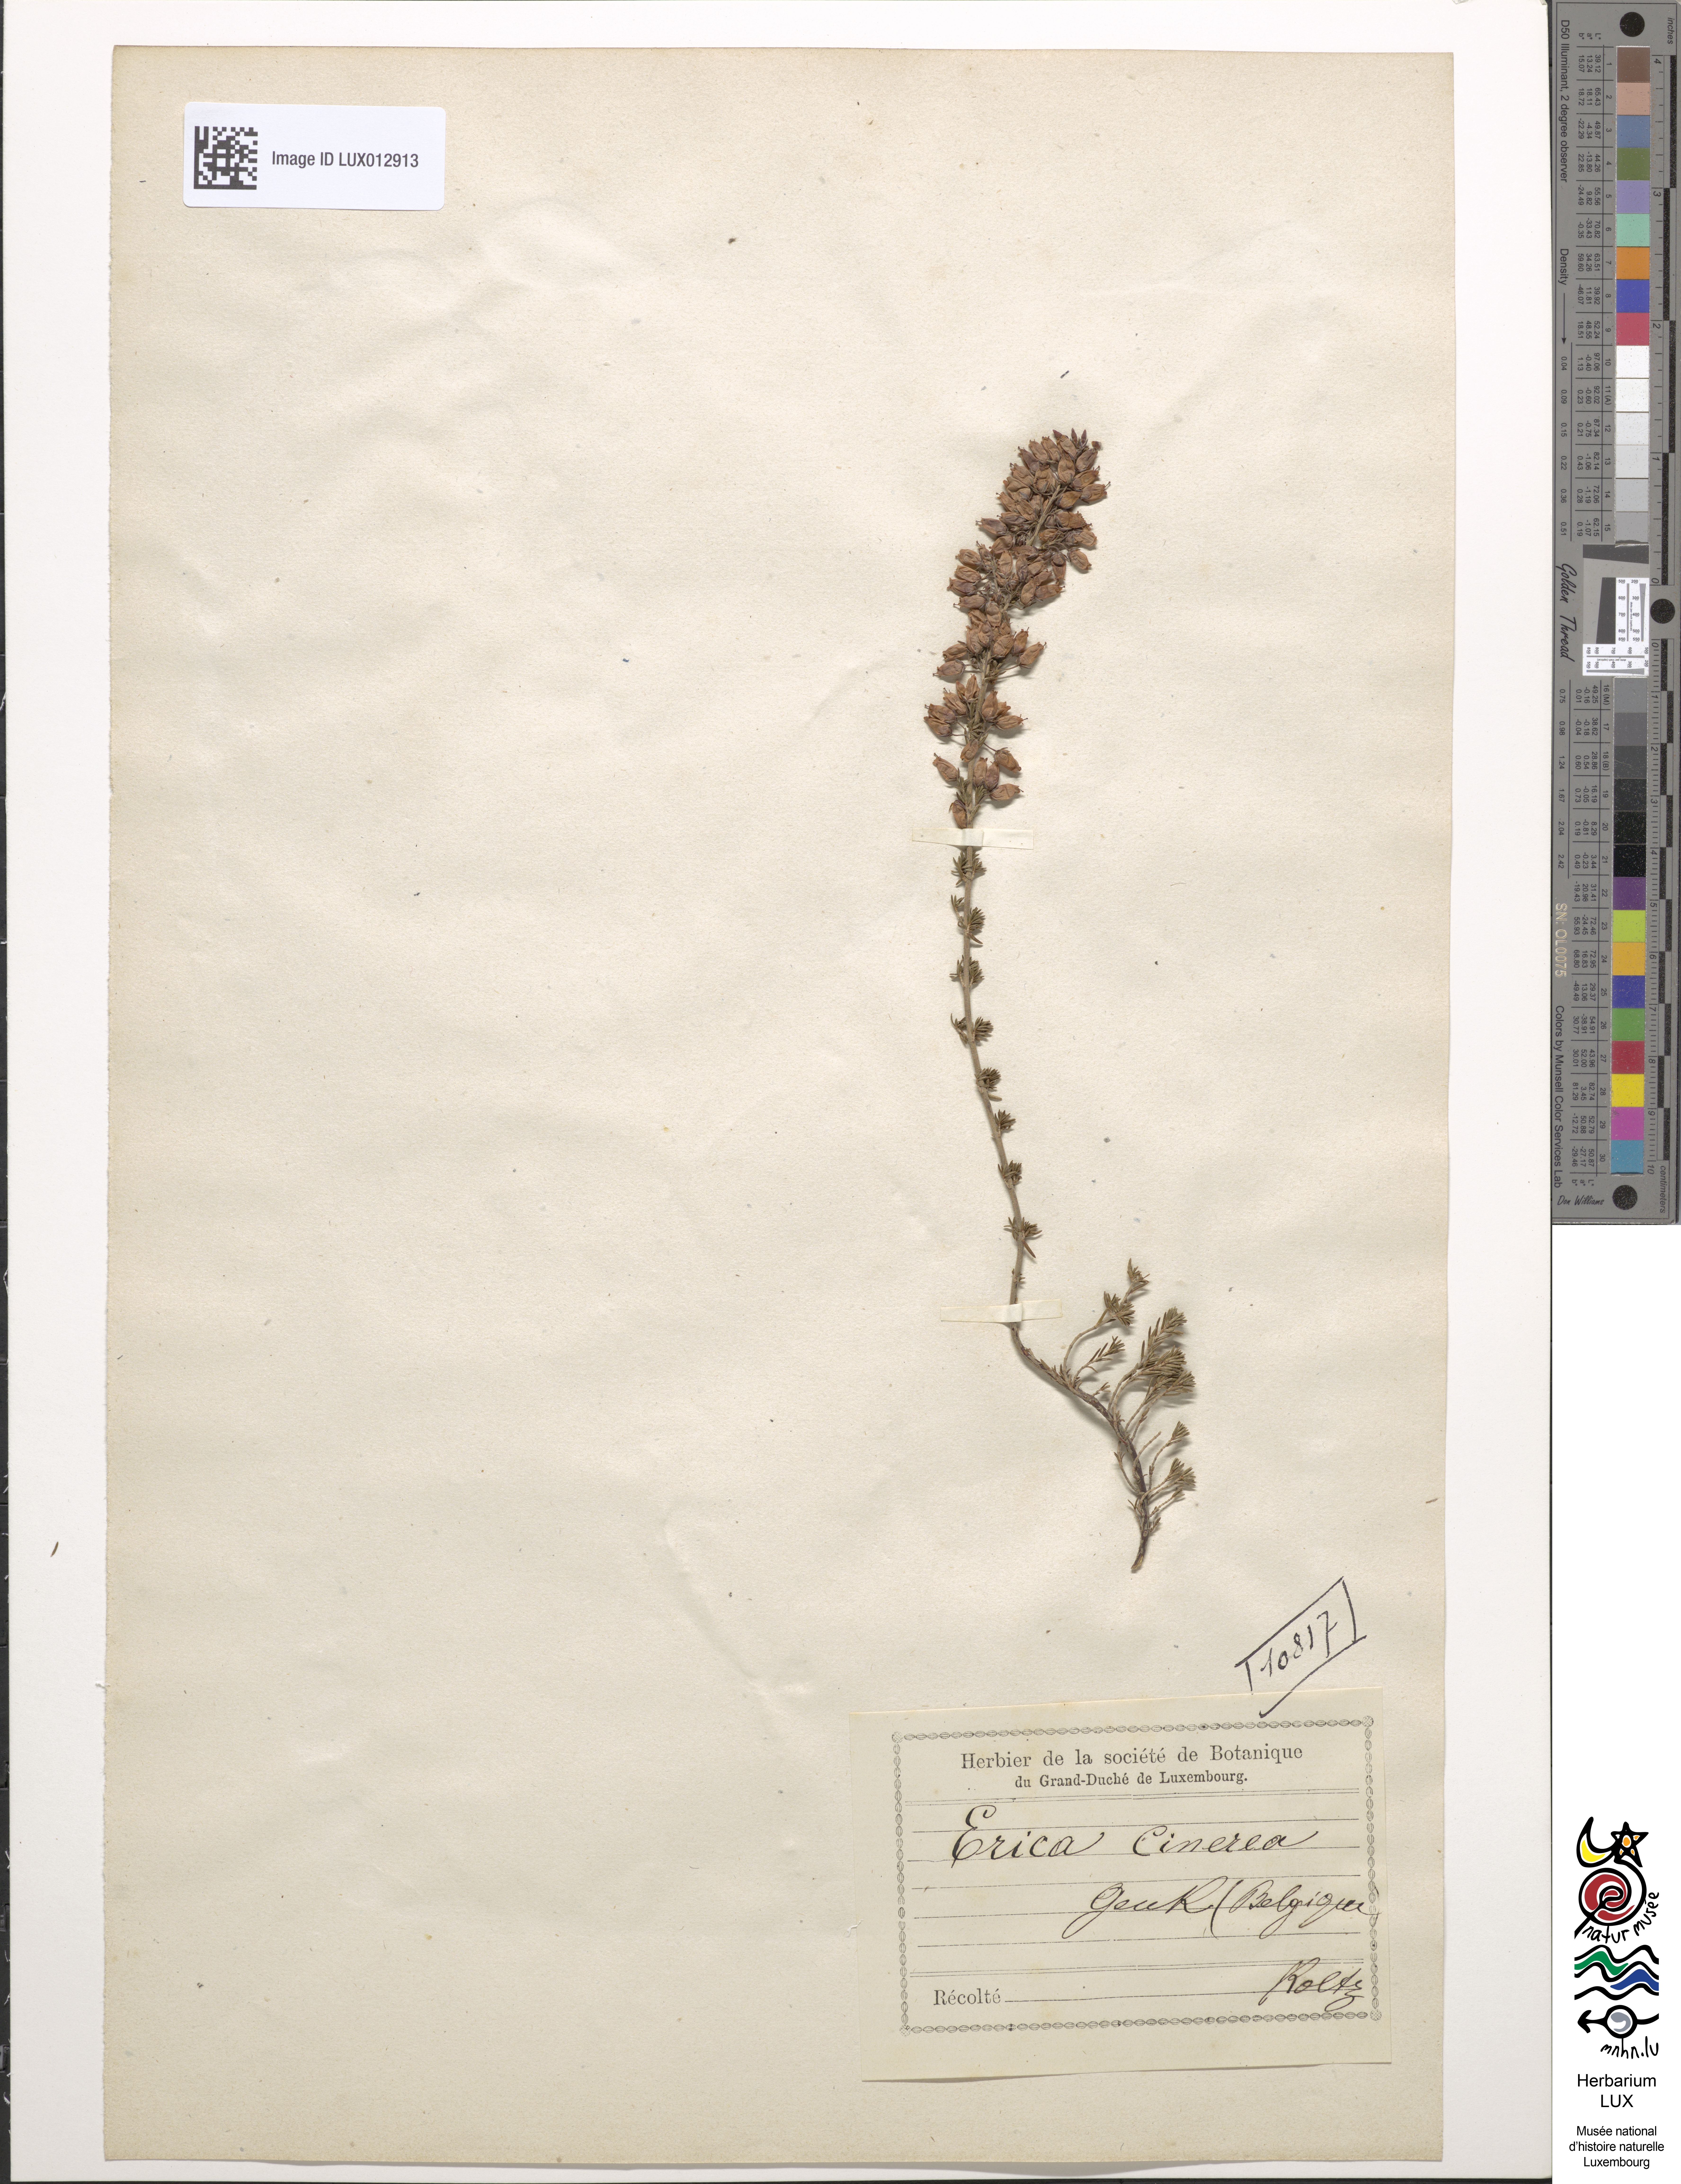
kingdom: Plantae
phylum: Tracheophyta
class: Magnoliopsida
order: Ericales
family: Ericaceae
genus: Erica
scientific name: Erica cinerea
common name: Bell heather
